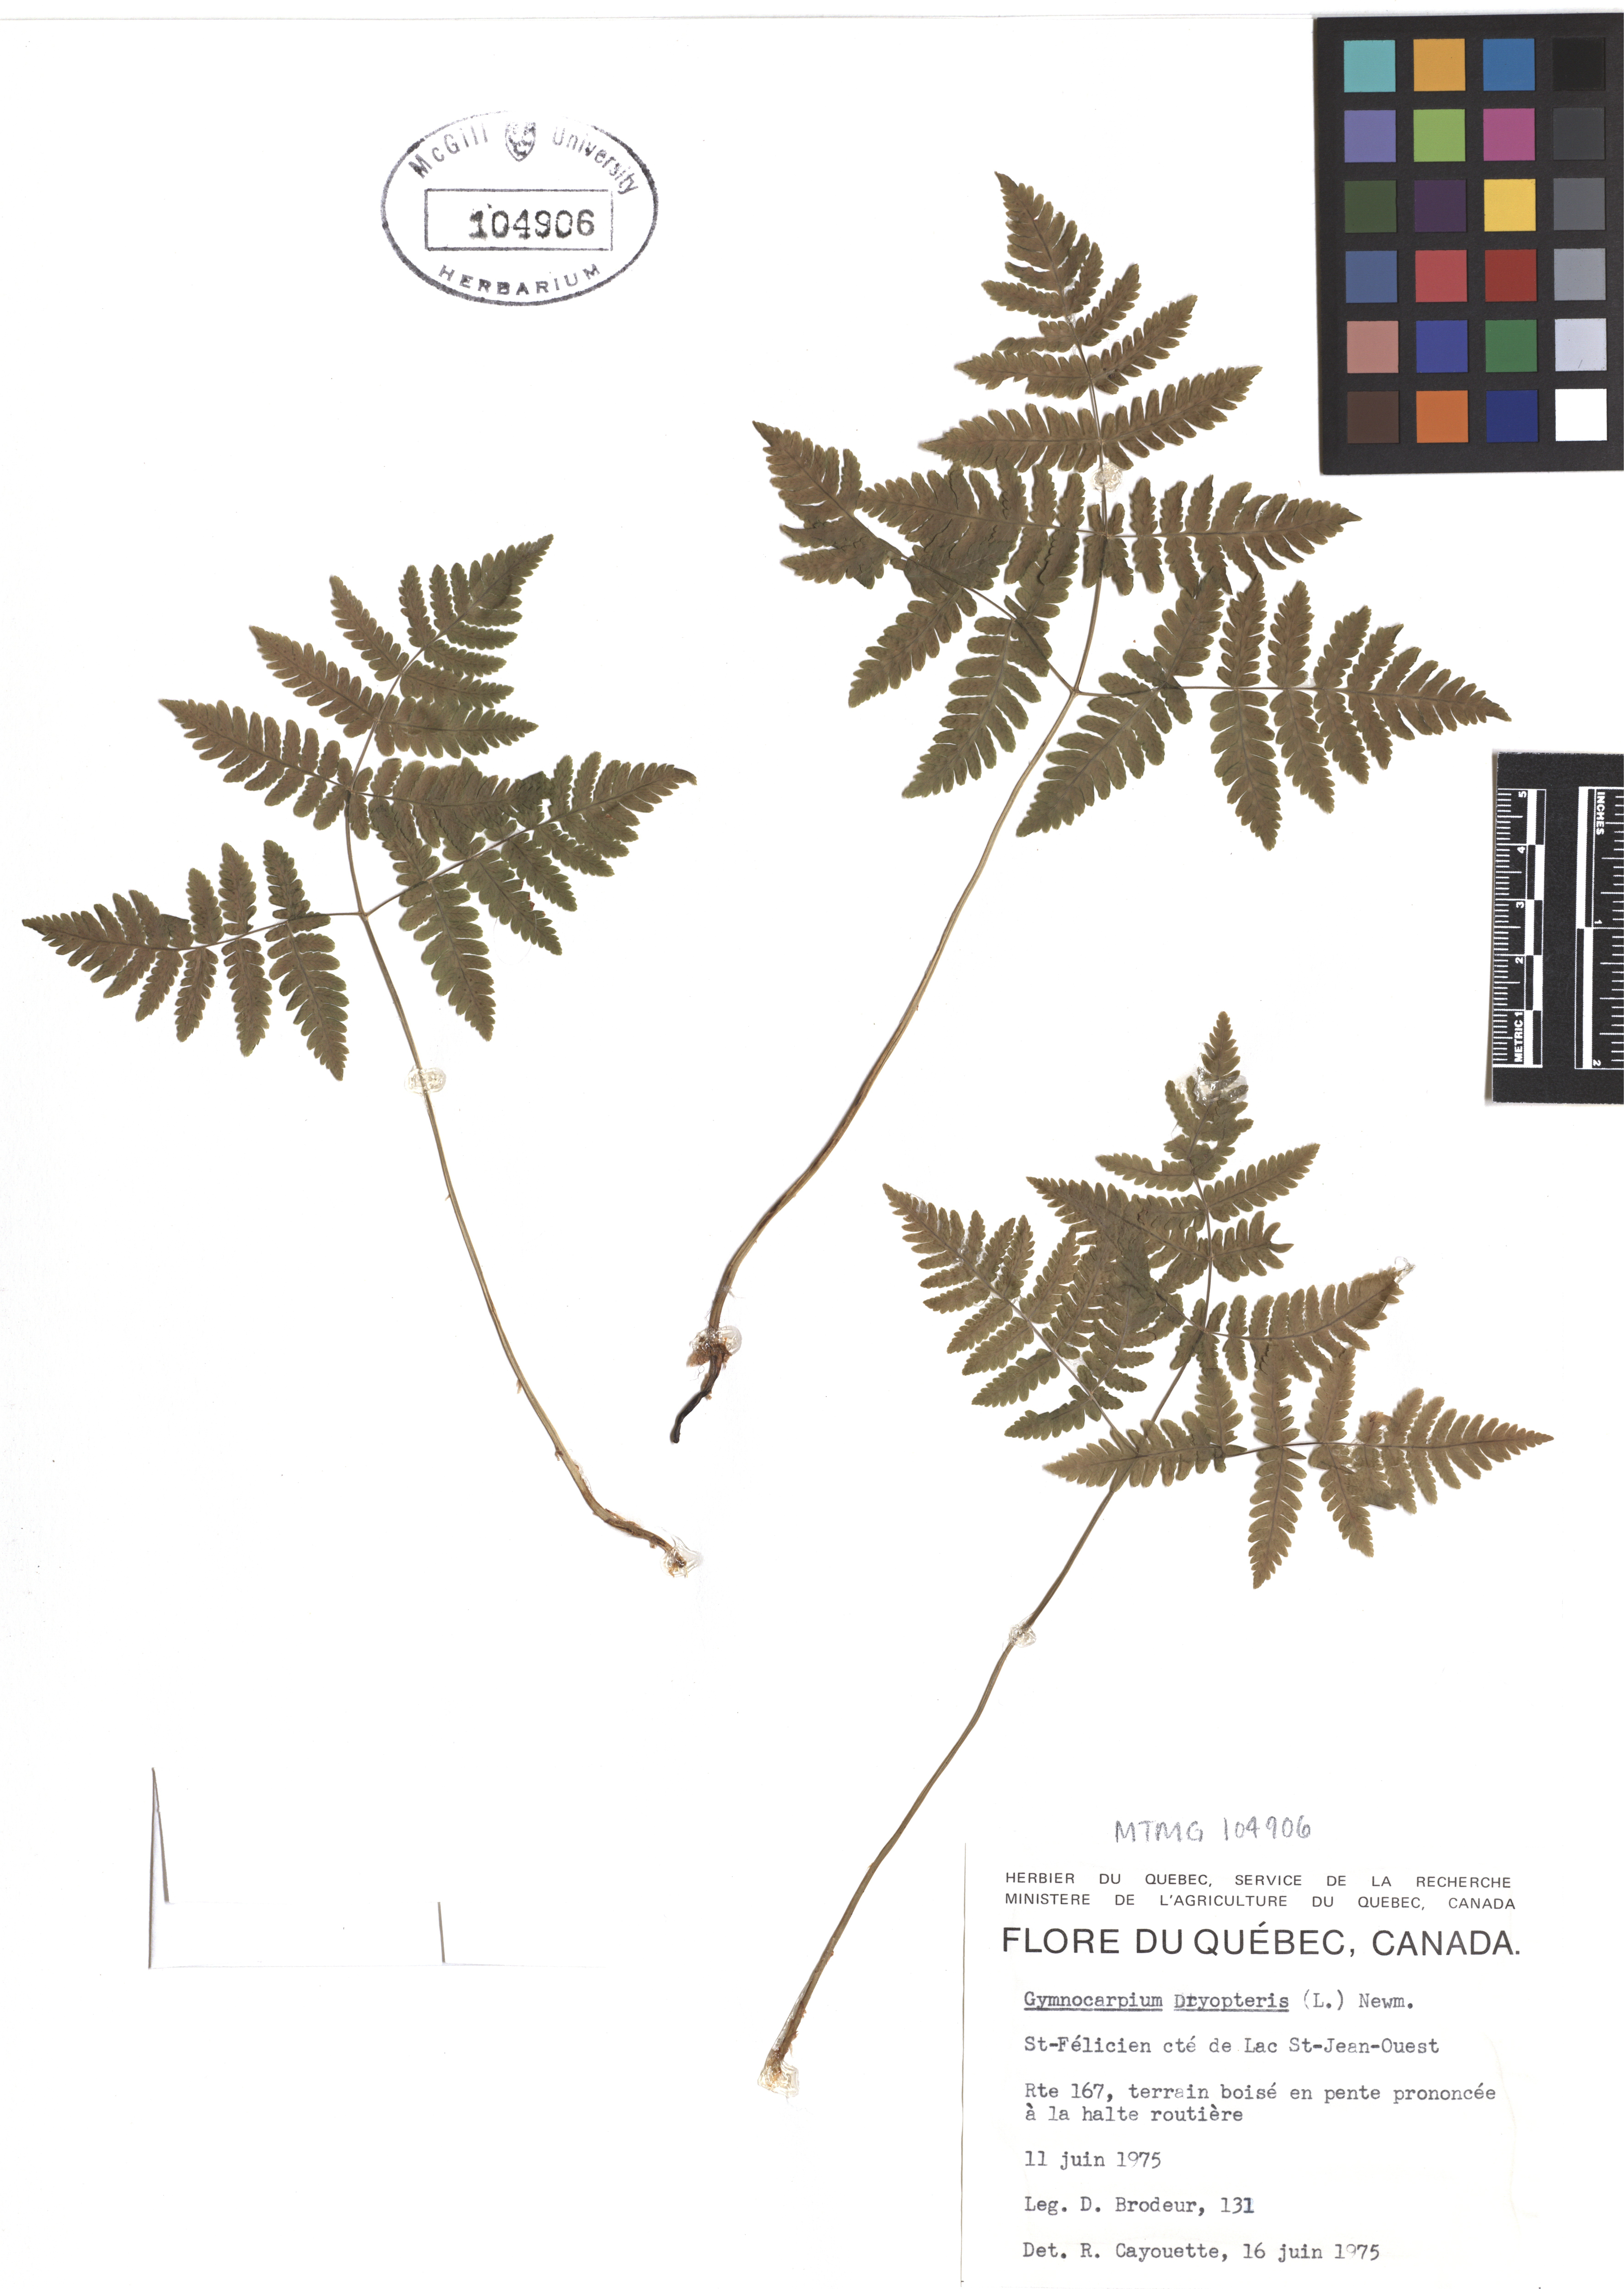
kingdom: Plantae
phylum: Tracheophyta
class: Polypodiopsida
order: Polypodiales
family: Cystopteridaceae
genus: Gymnocarpium
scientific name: Gymnocarpium dryopteris
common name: Oak fern
